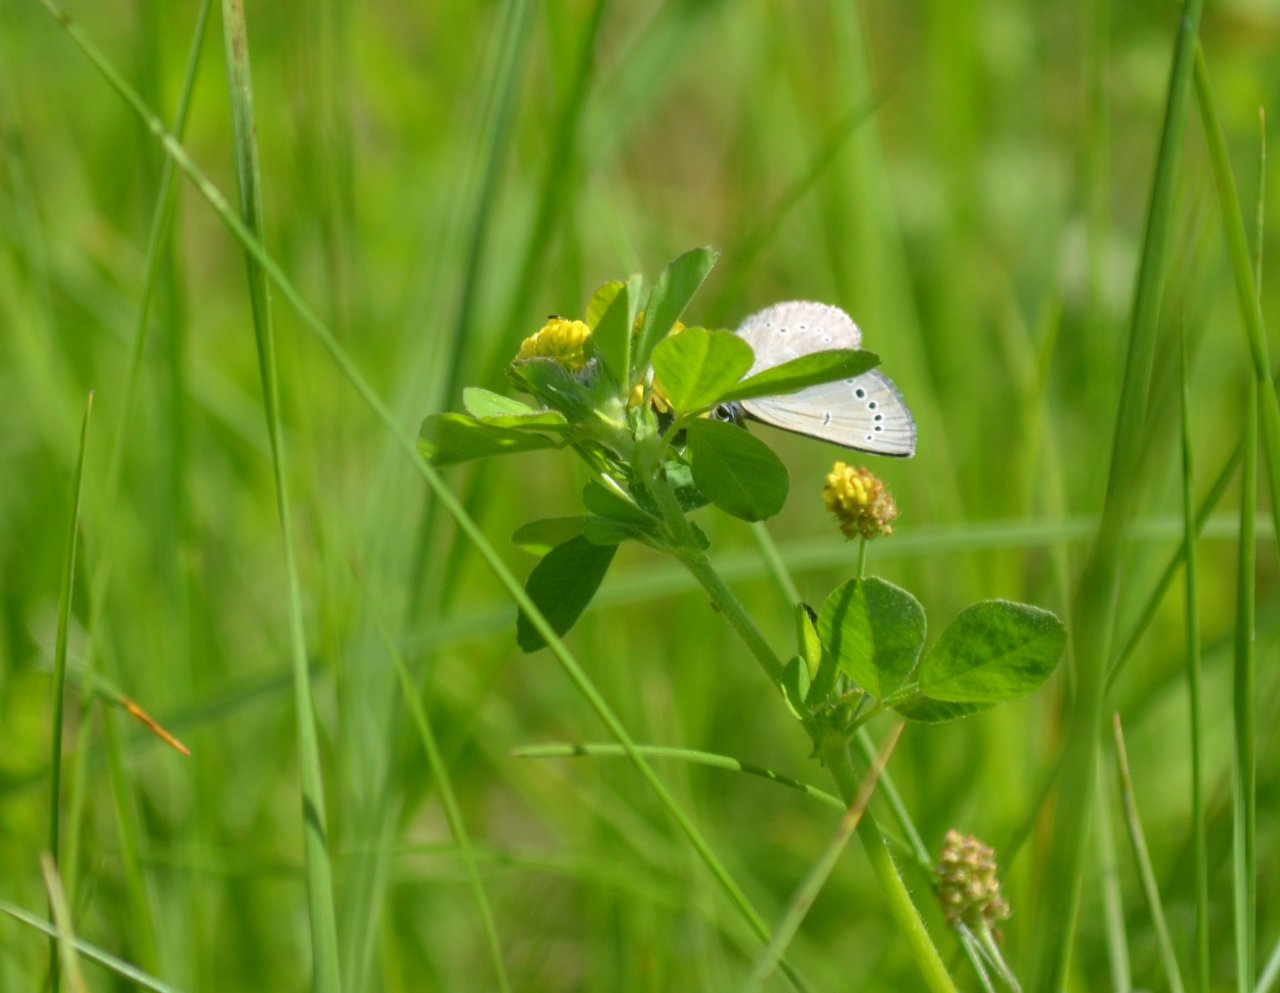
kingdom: Animalia
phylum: Arthropoda
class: Insecta
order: Lepidoptera
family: Lycaenidae
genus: Glaucopsyche
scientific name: Glaucopsyche lygdamus
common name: Silvery Blue
